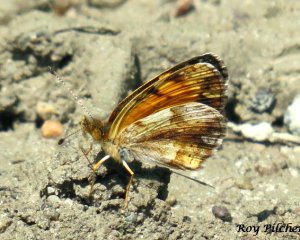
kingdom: Animalia
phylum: Arthropoda
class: Insecta
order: Lepidoptera
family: Nymphalidae
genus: Phyciodes
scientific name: Phyciodes tharos
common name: Northern Crescent
